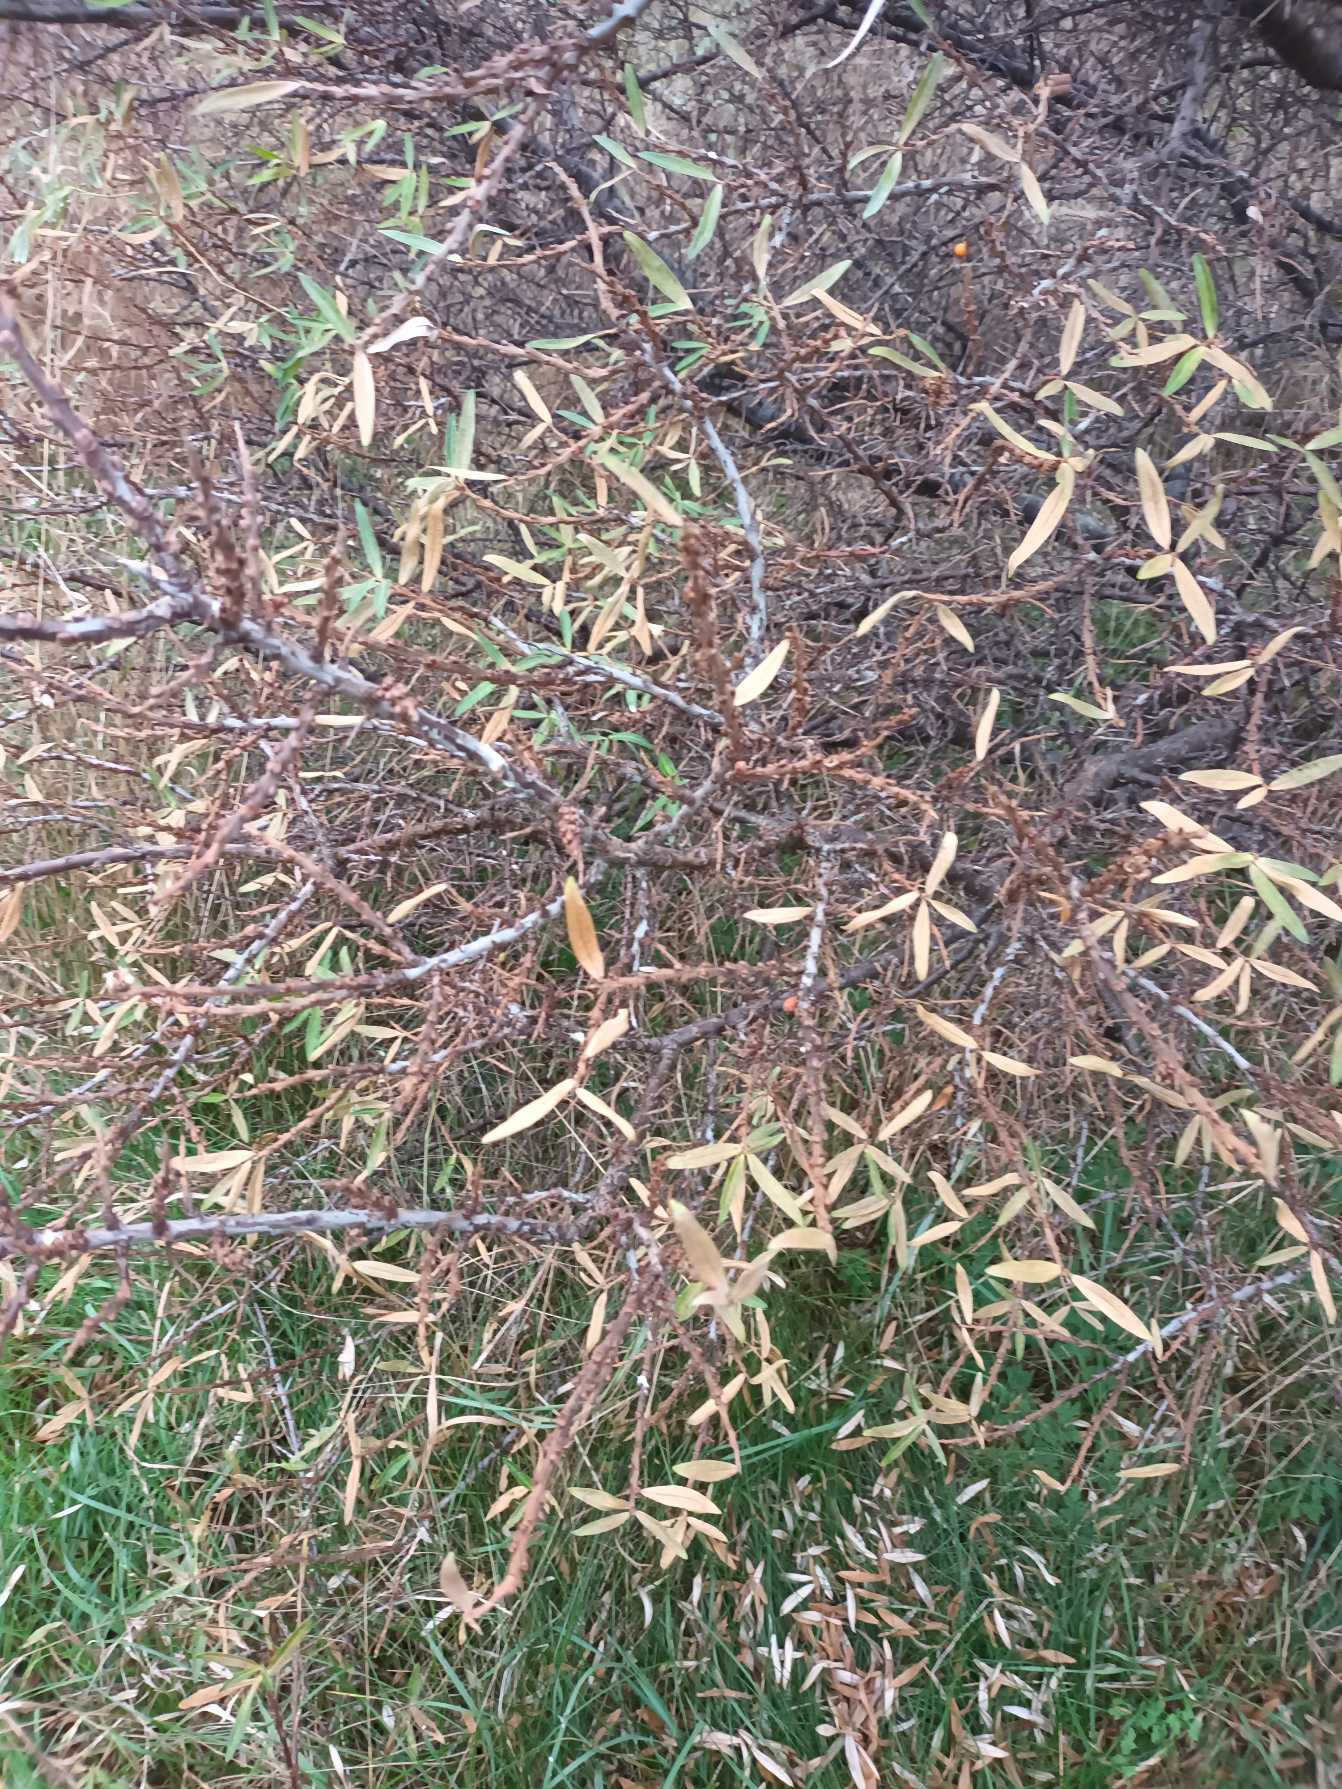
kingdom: Plantae
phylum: Tracheophyta
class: Magnoliopsida
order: Rosales
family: Elaeagnaceae
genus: Hippophae
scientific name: Hippophae rhamnoides
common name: Havtorn
